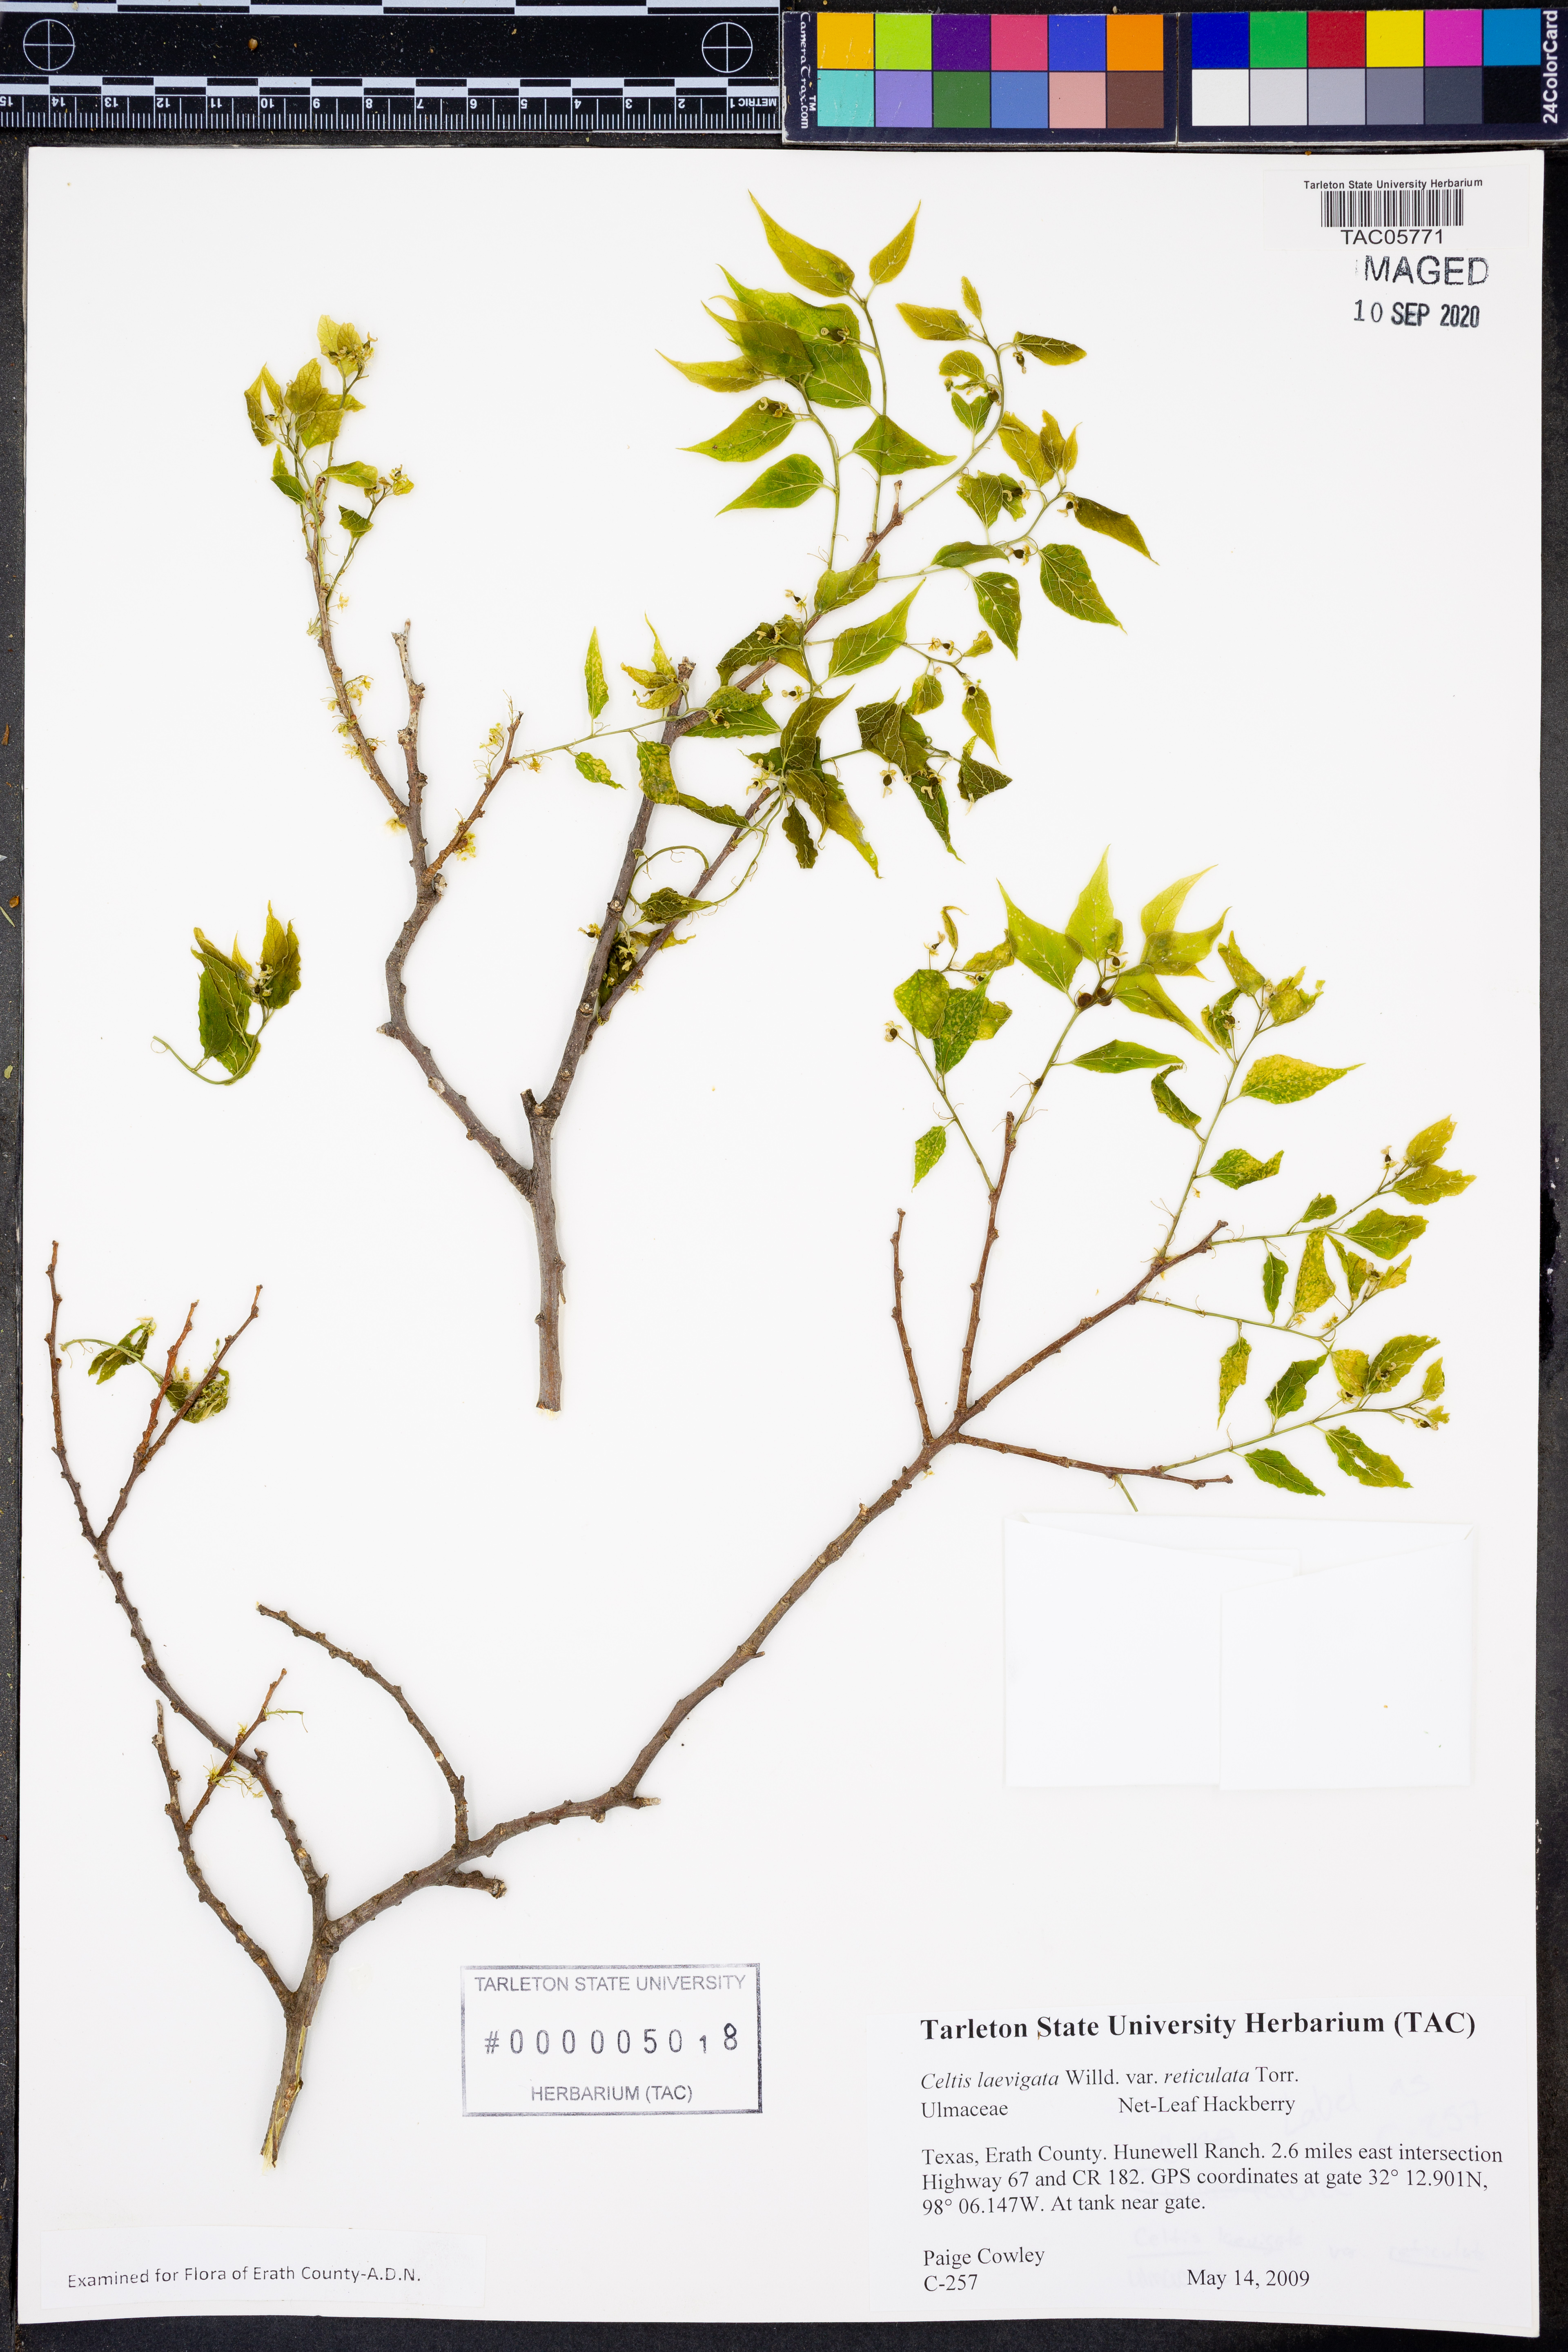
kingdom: Plantae
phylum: Tracheophyta
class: Magnoliopsida
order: Rosales
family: Cannabaceae
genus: Celtis
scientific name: Celtis reticulata
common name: Netleaf hackberry
